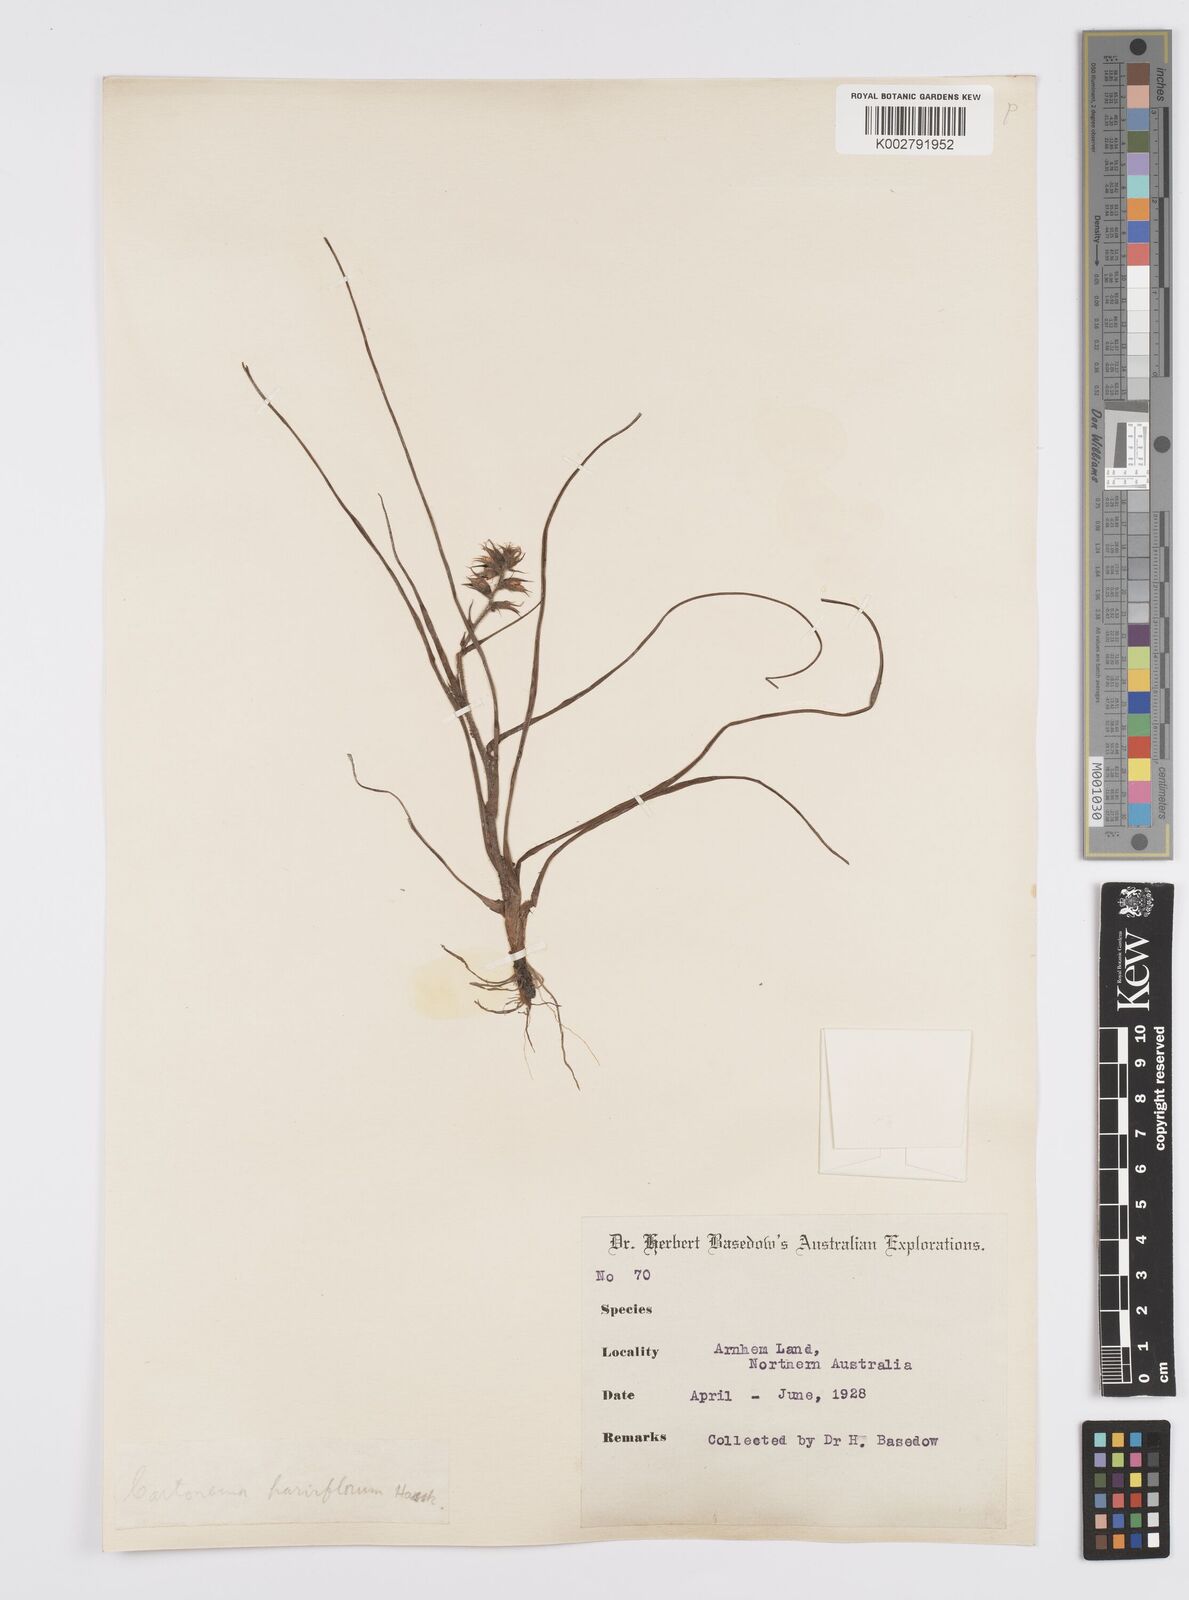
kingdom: Plantae
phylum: Tracheophyta
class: Liliopsida
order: Commelinales
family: Commelinaceae
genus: Cartonema
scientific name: Cartonema parviflorum
